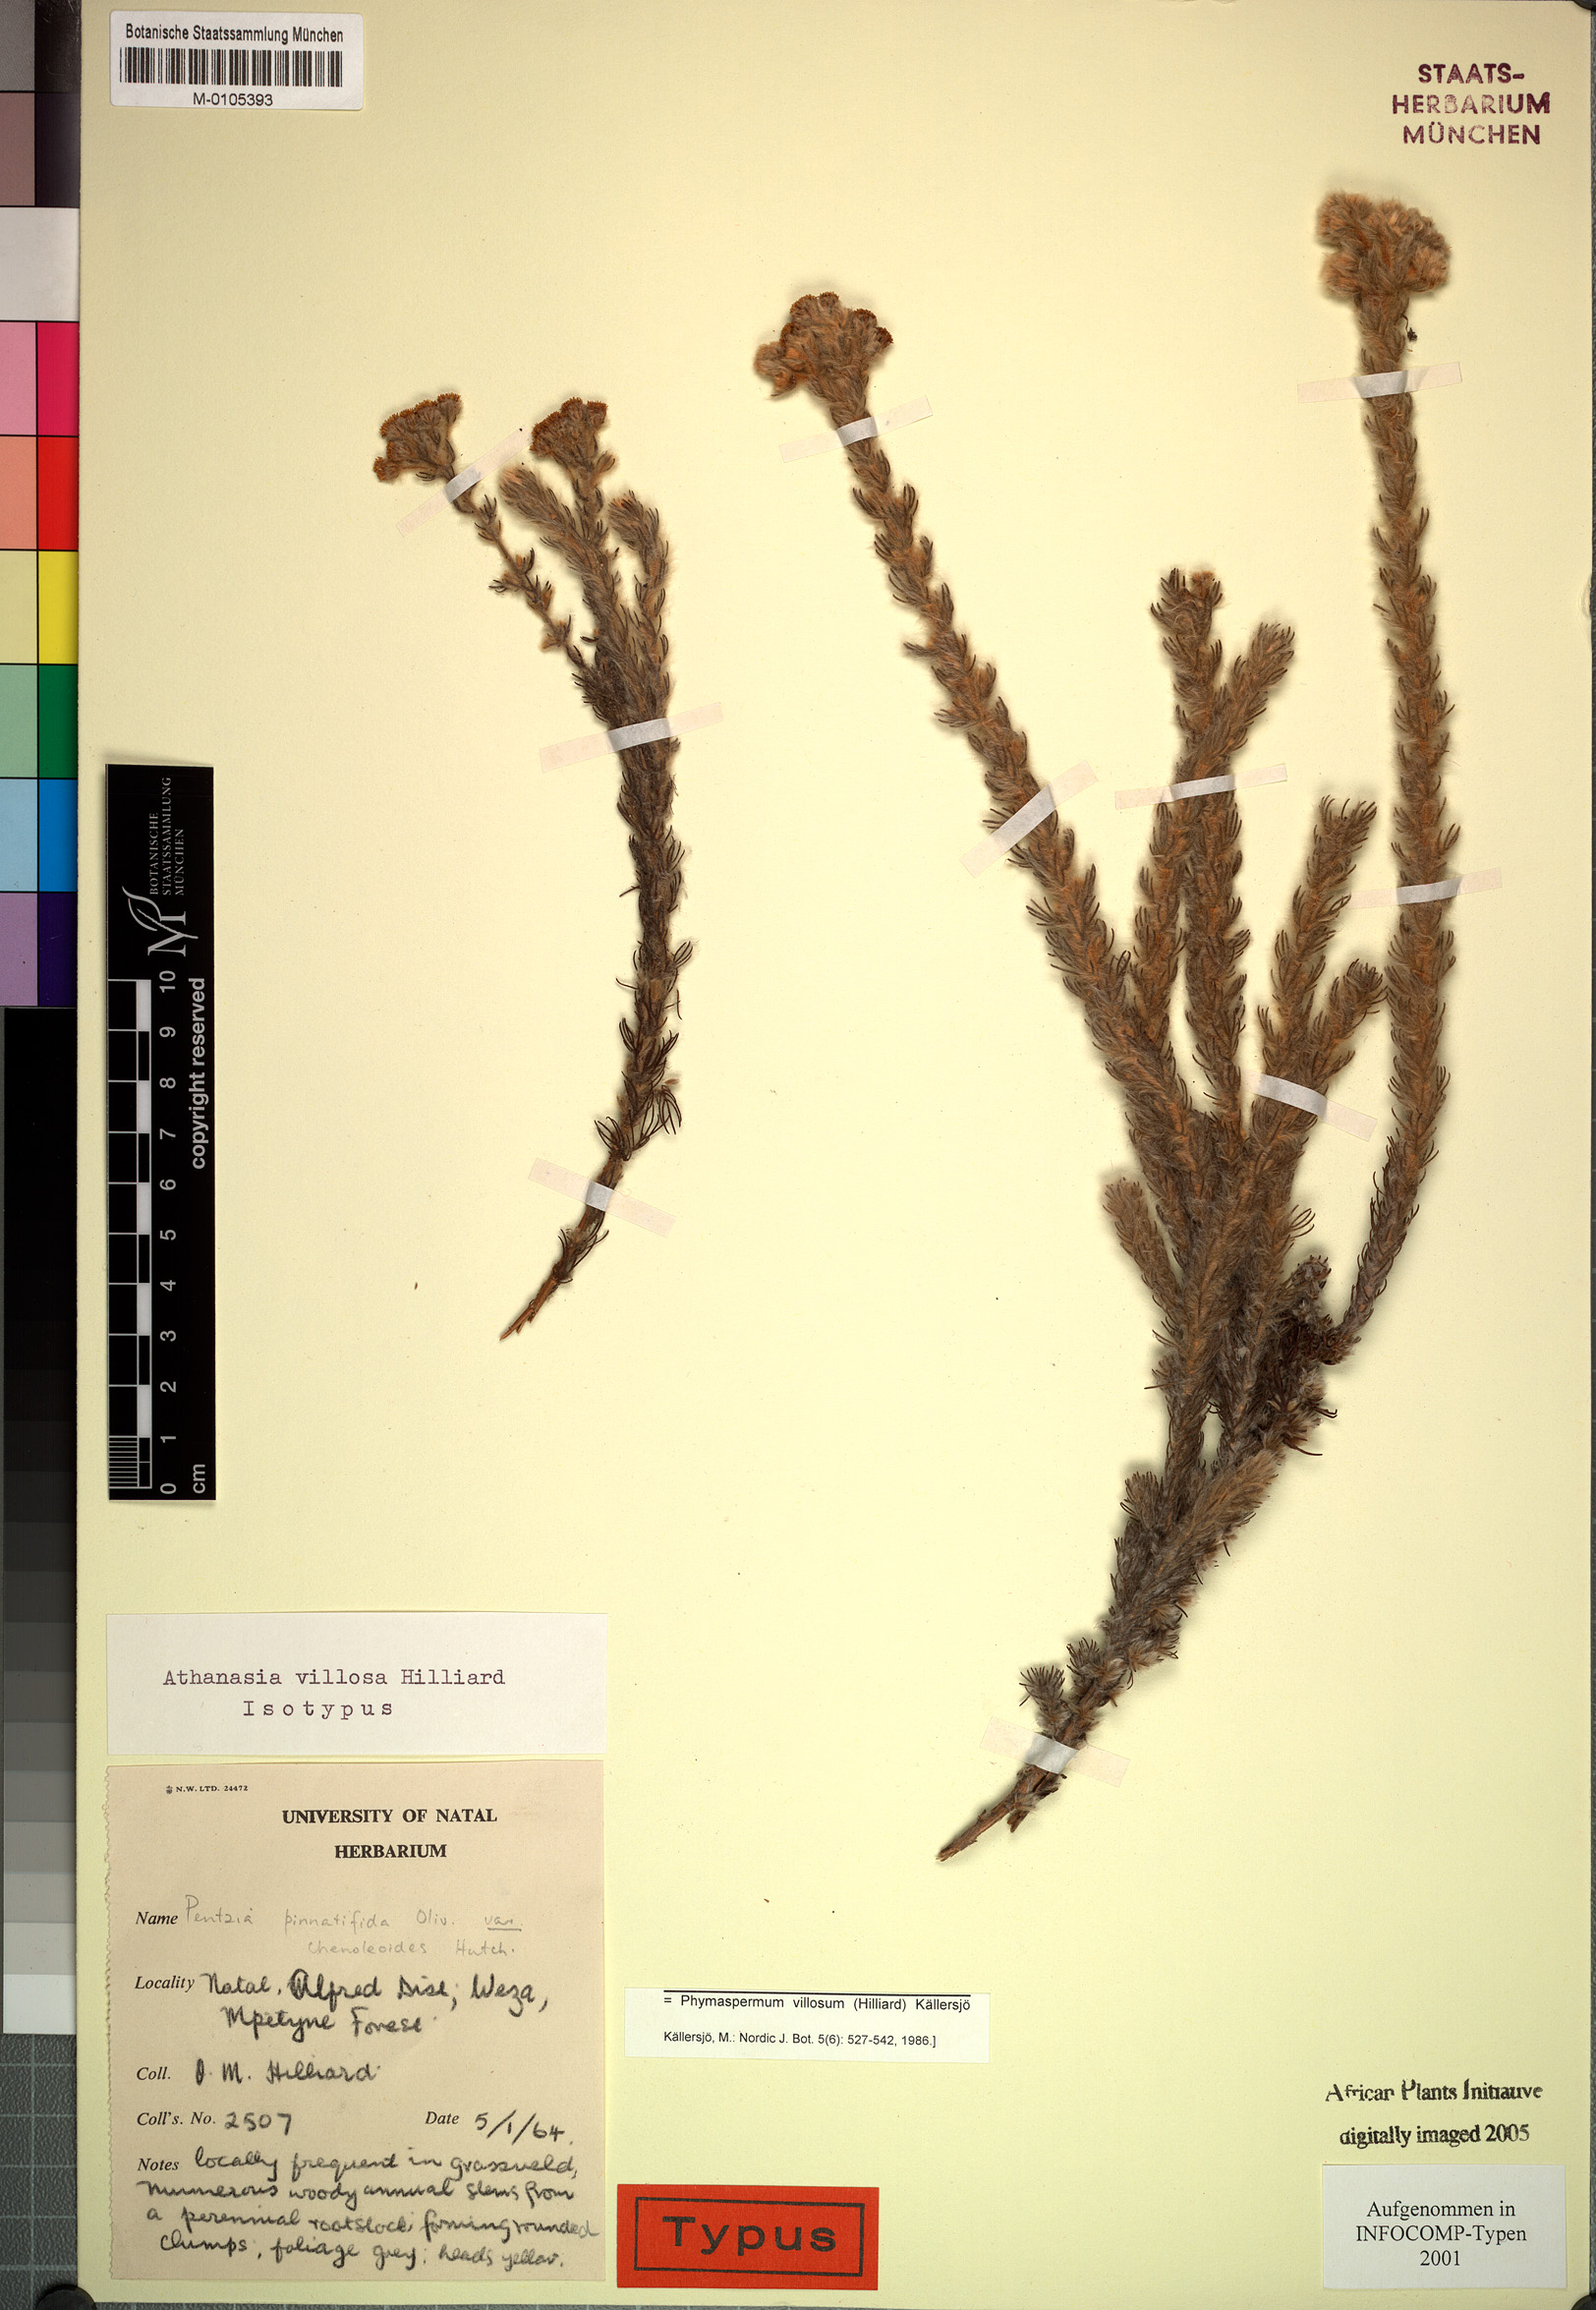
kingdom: Plantae
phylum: Tracheophyta
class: Magnoliopsida
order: Asterales
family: Asteraceae
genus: Phymaspermum
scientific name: Phymaspermum villosum
